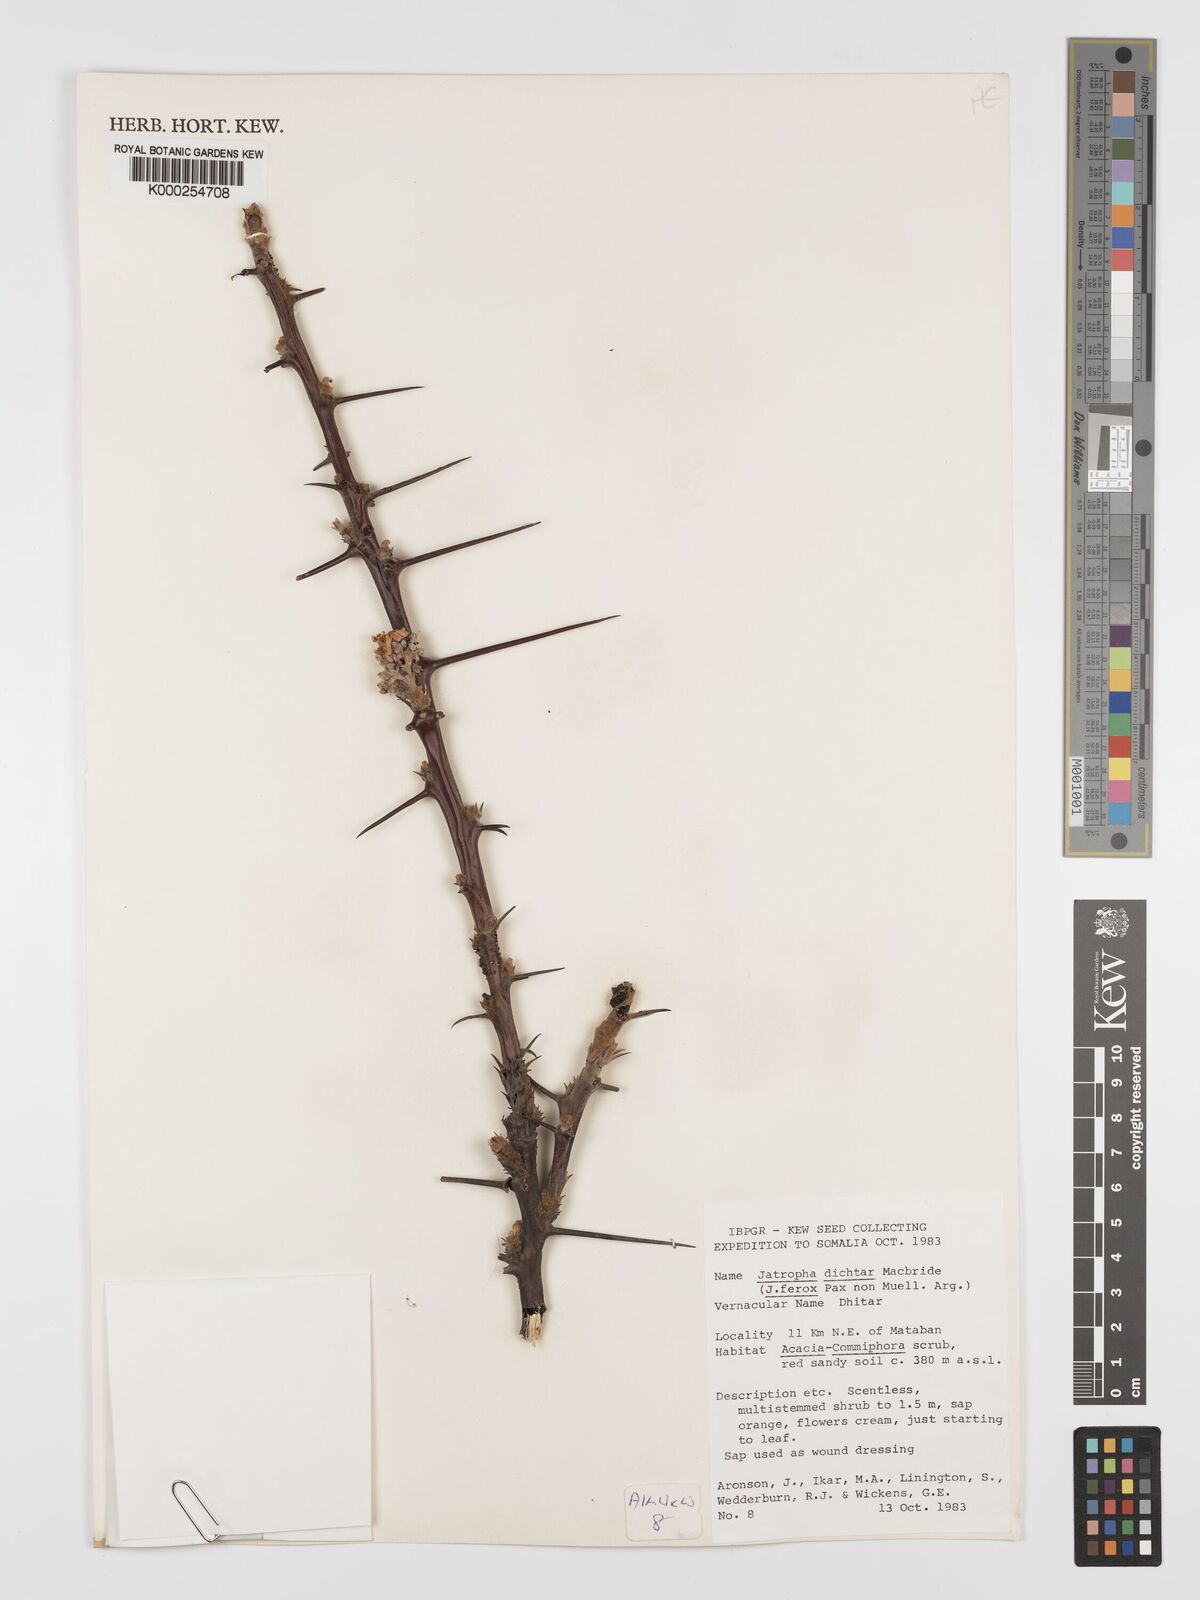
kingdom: Plantae
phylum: Tracheophyta
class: Magnoliopsida
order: Malpighiales
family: Euphorbiaceae
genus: Jatropha
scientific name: Jatropha dichtar
